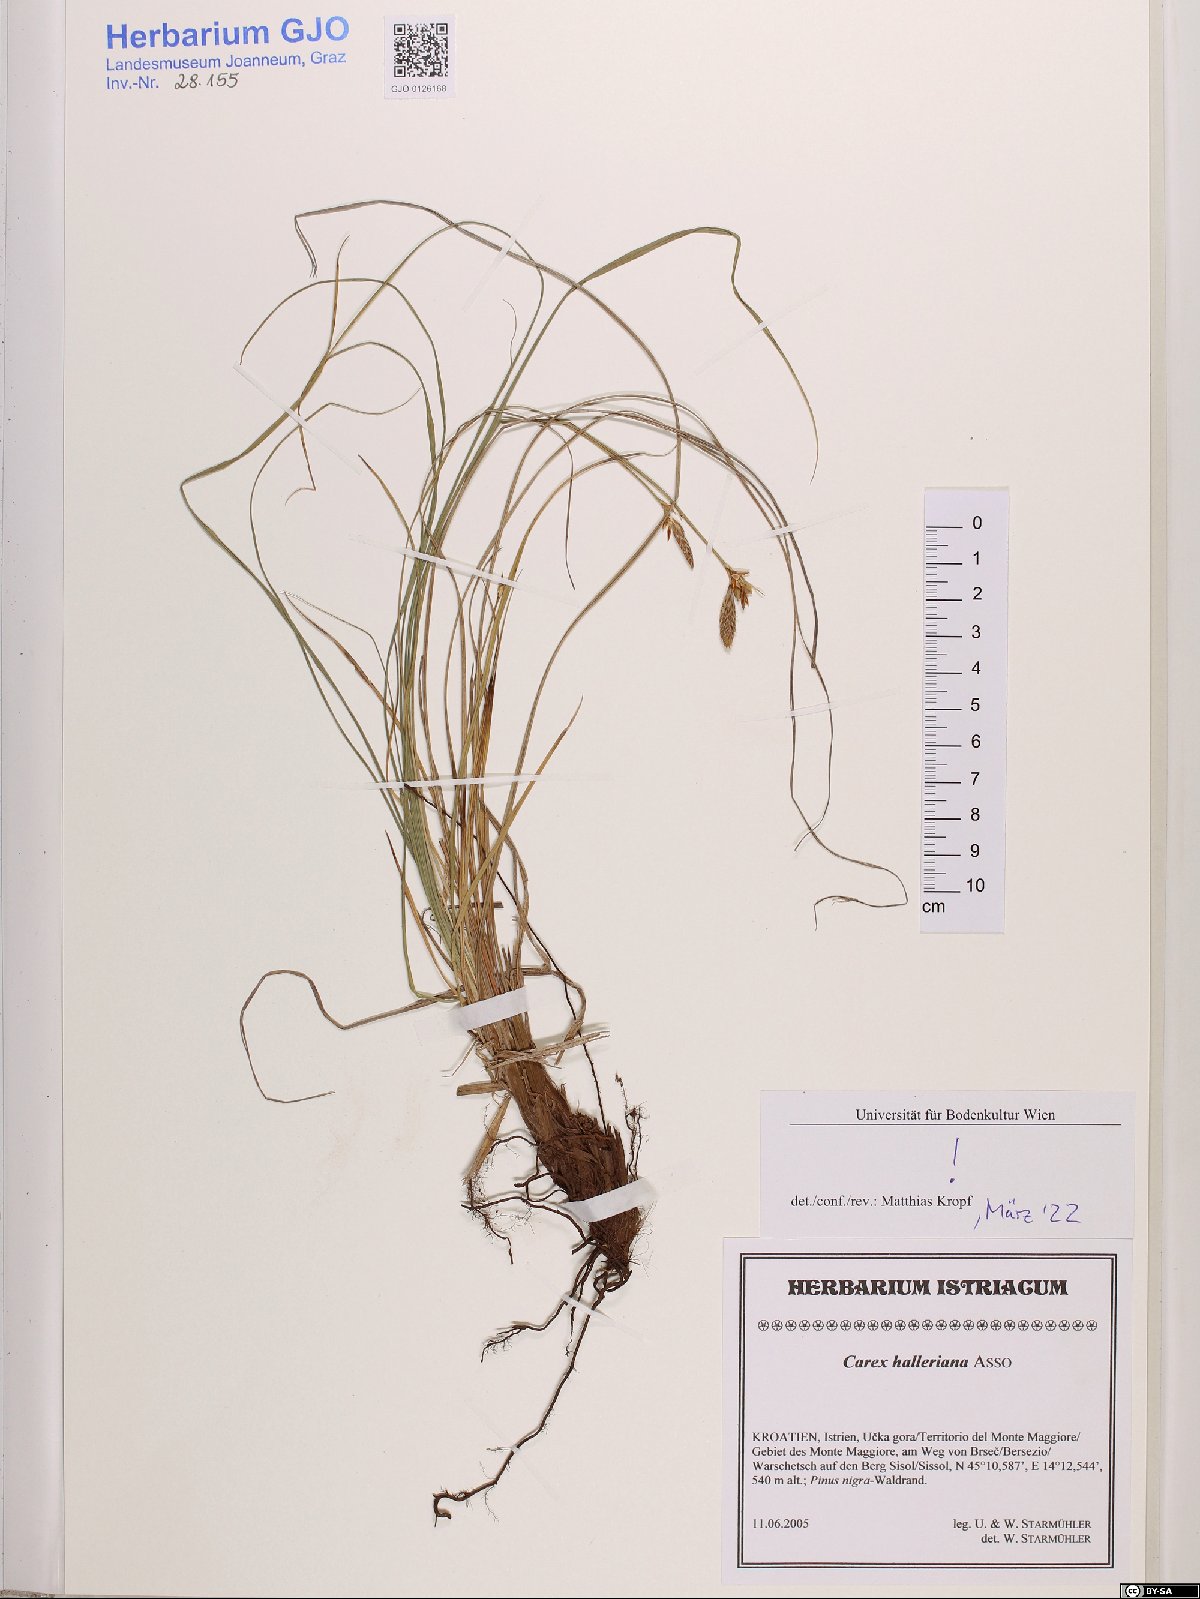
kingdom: Plantae
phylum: Tracheophyta
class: Liliopsida
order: Poales
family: Cyperaceae
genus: Carex
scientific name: Carex halleriana
